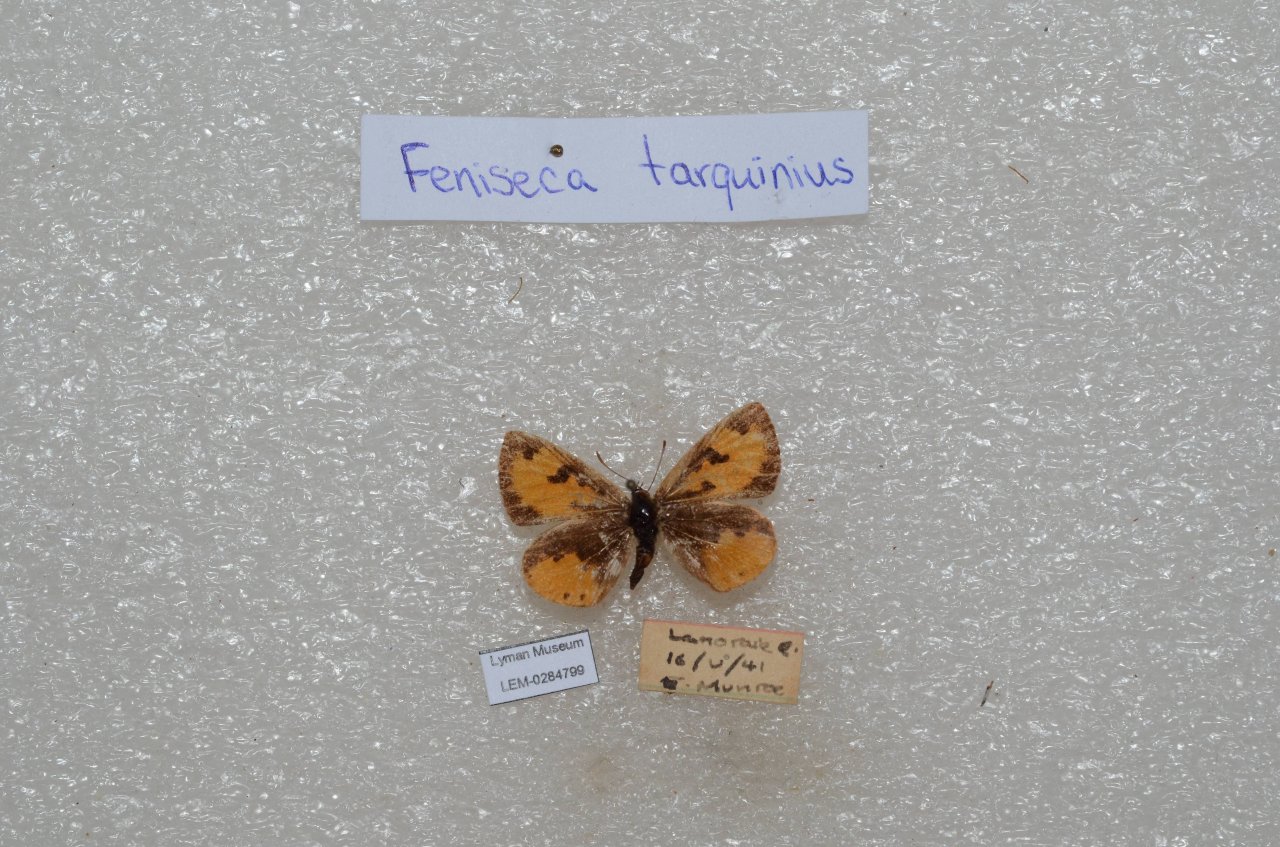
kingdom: Animalia
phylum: Arthropoda
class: Insecta
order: Lepidoptera
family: Lycaenidae
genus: Feniseca
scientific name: Feniseca tarquinius
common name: Harvester
